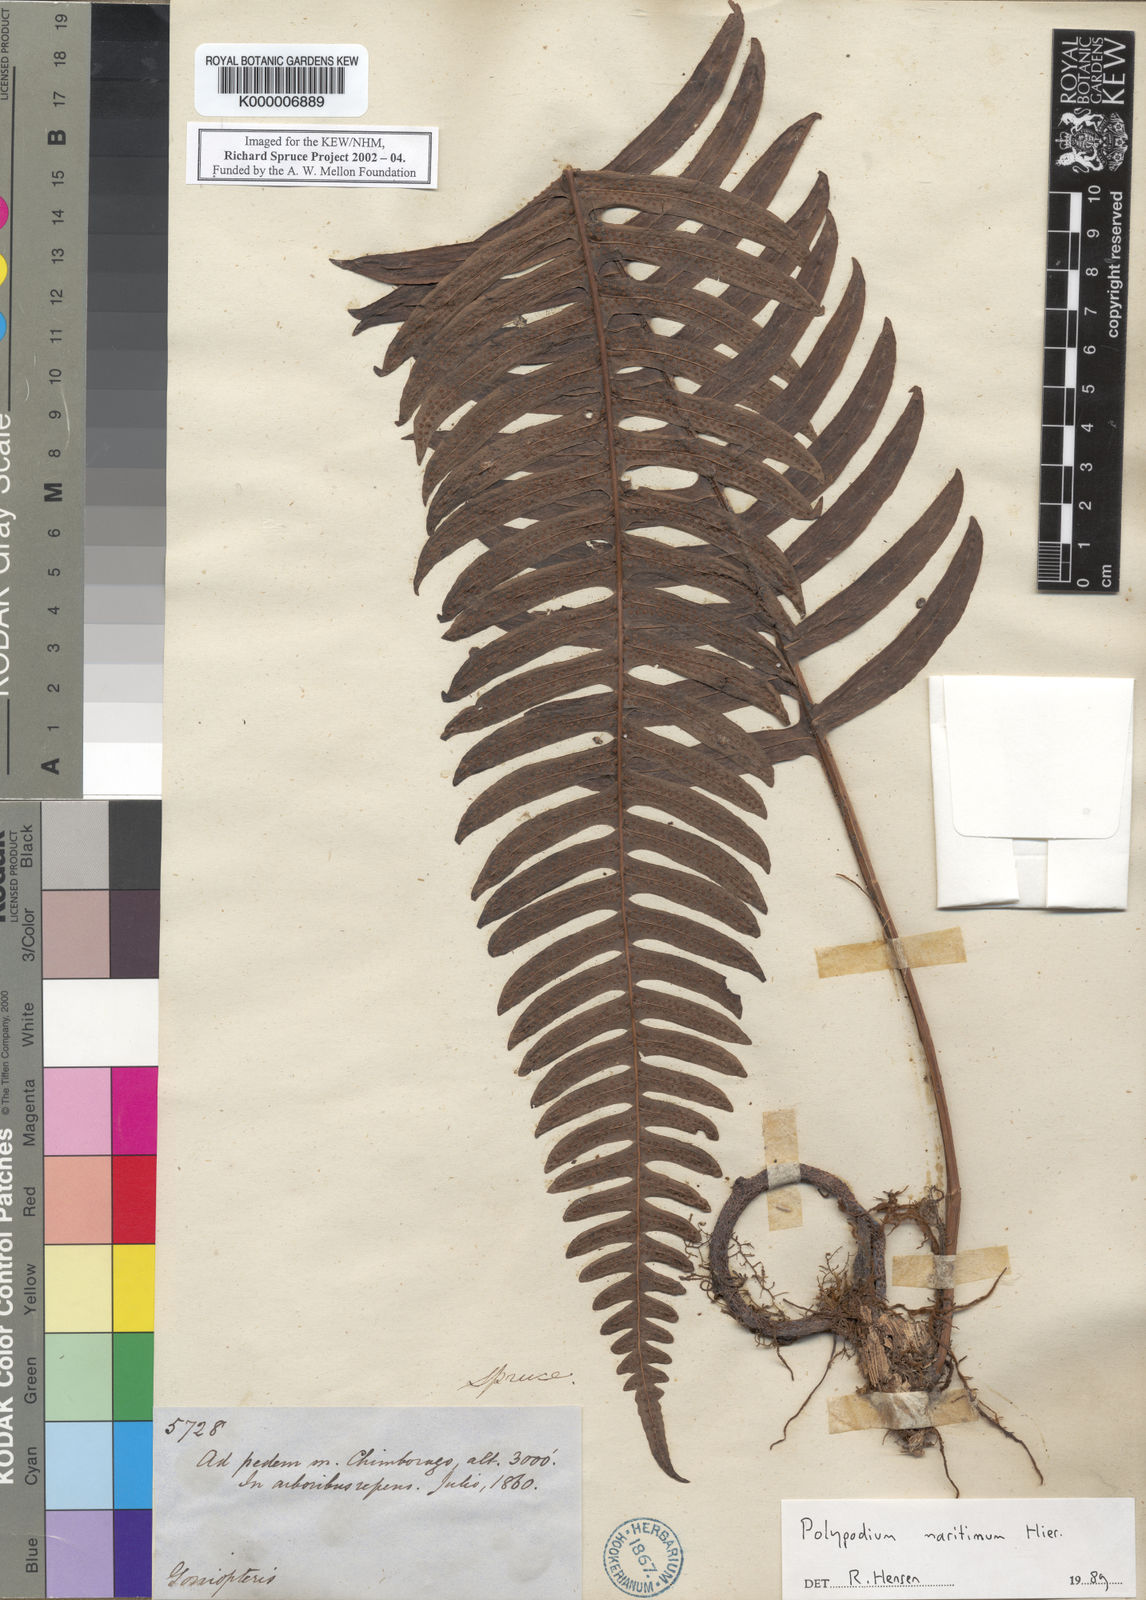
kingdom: Plantae
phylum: Tracheophyta
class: Polypodiopsida
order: Polypodiales
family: Polypodiaceae
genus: Serpocaulon
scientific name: Serpocaulon loriceum
